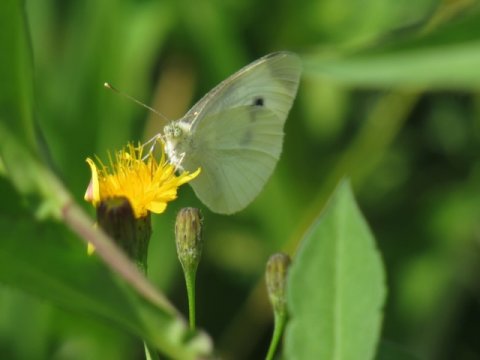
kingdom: Animalia
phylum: Arthropoda
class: Insecta
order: Lepidoptera
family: Pieridae
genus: Pieris
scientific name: Pieris rapae
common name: Cabbage White
